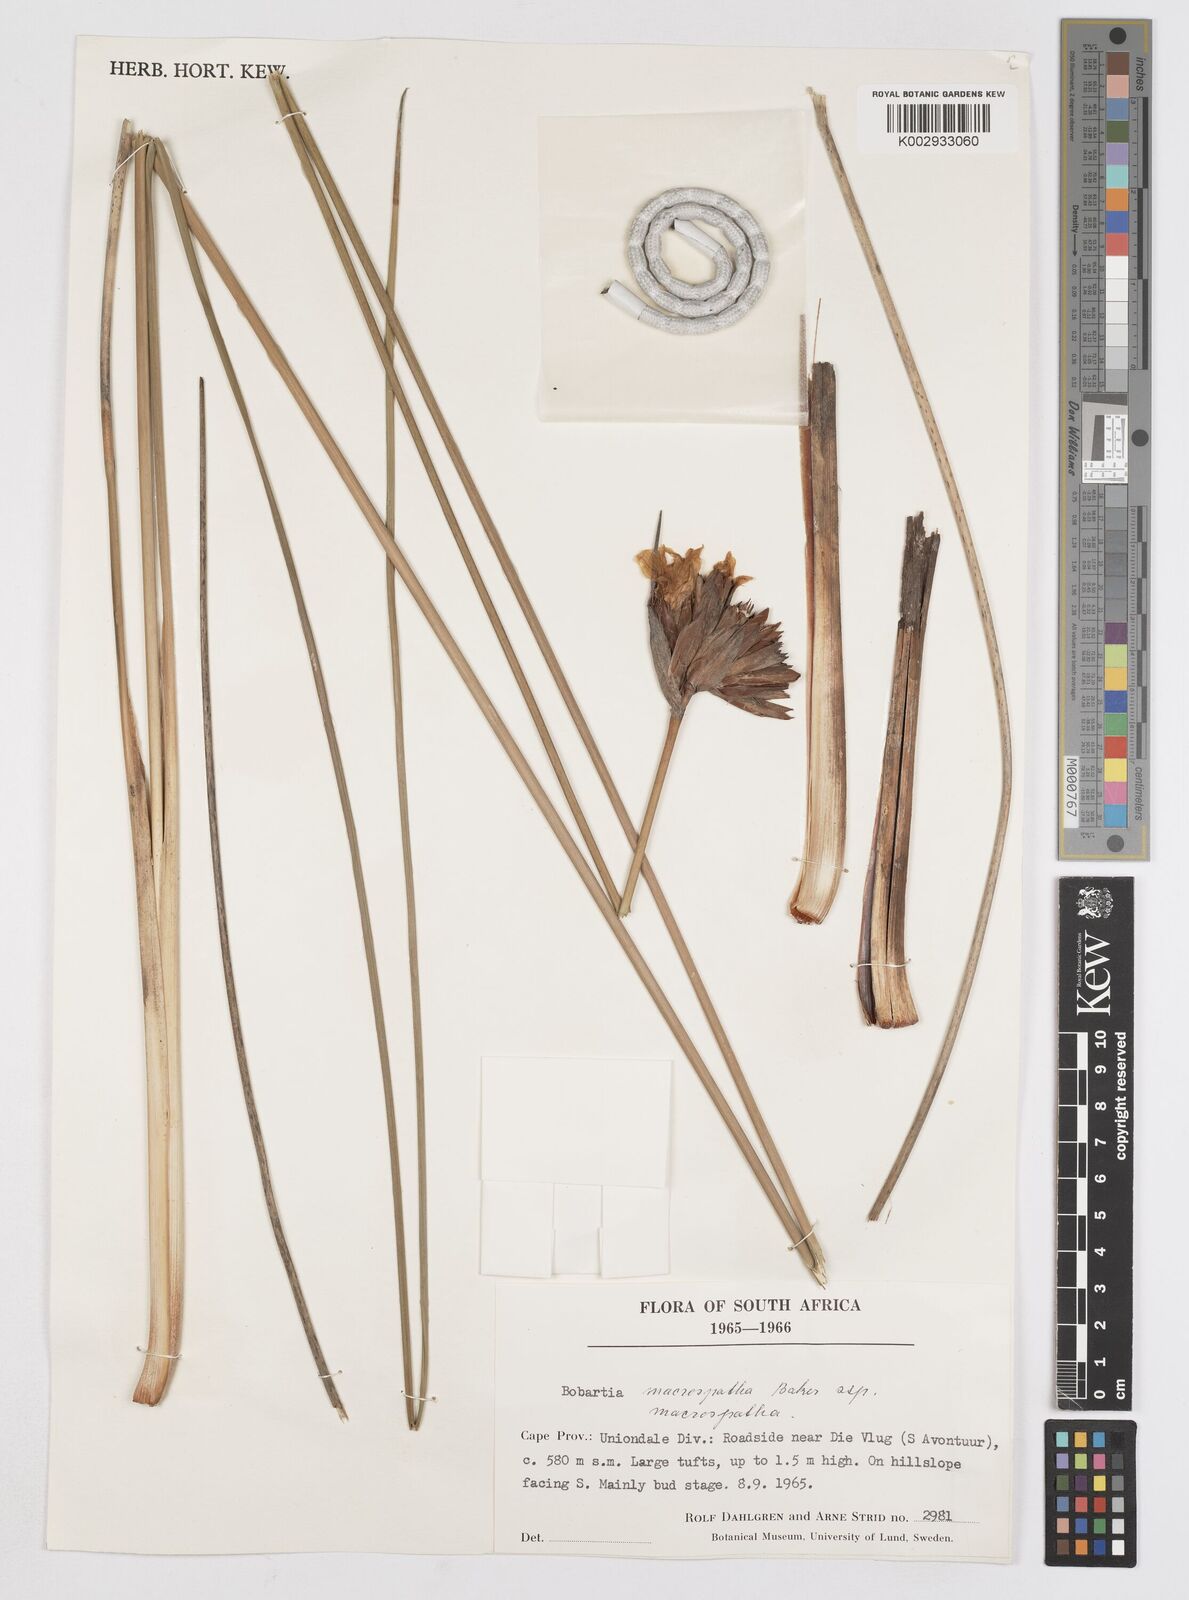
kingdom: Plantae
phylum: Tracheophyta
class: Liliopsida
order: Asparagales
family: Iridaceae
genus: Bobartia
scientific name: Bobartia macrospatha
